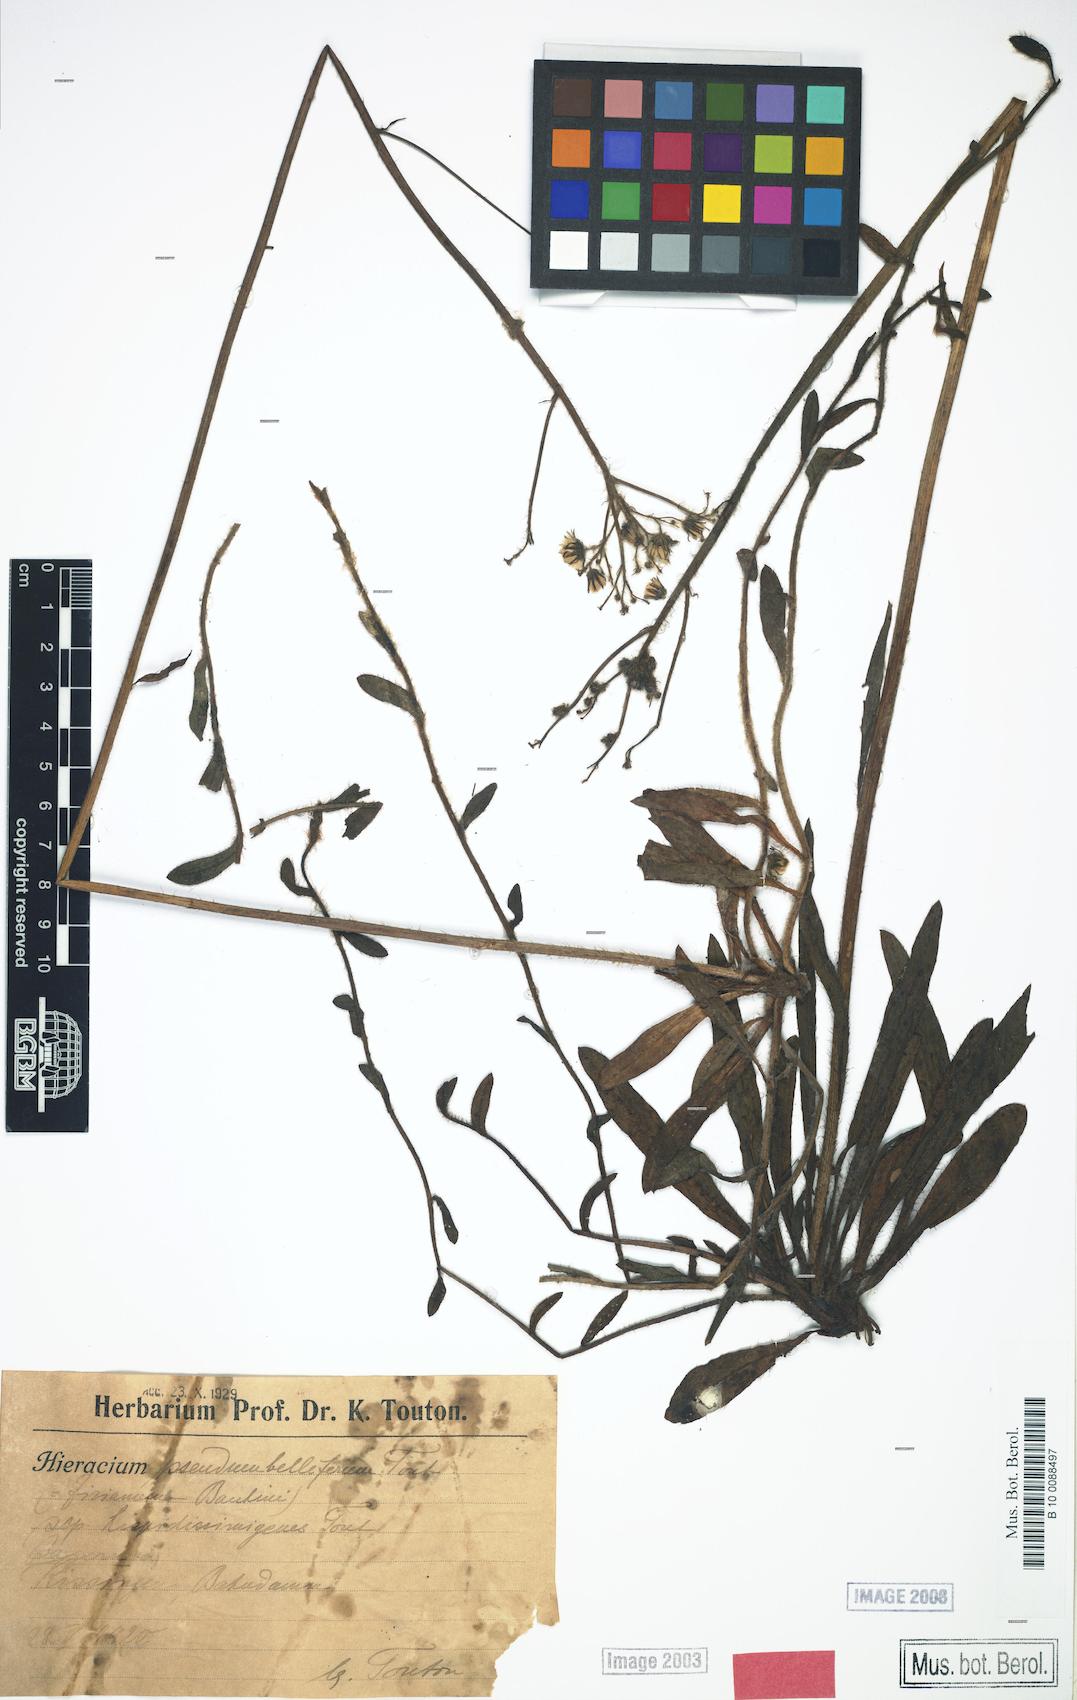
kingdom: Plantae
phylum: Tracheophyta
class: Magnoliopsida
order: Asterales
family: Asteraceae
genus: Pilosella
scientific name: Pilosella bauhini
